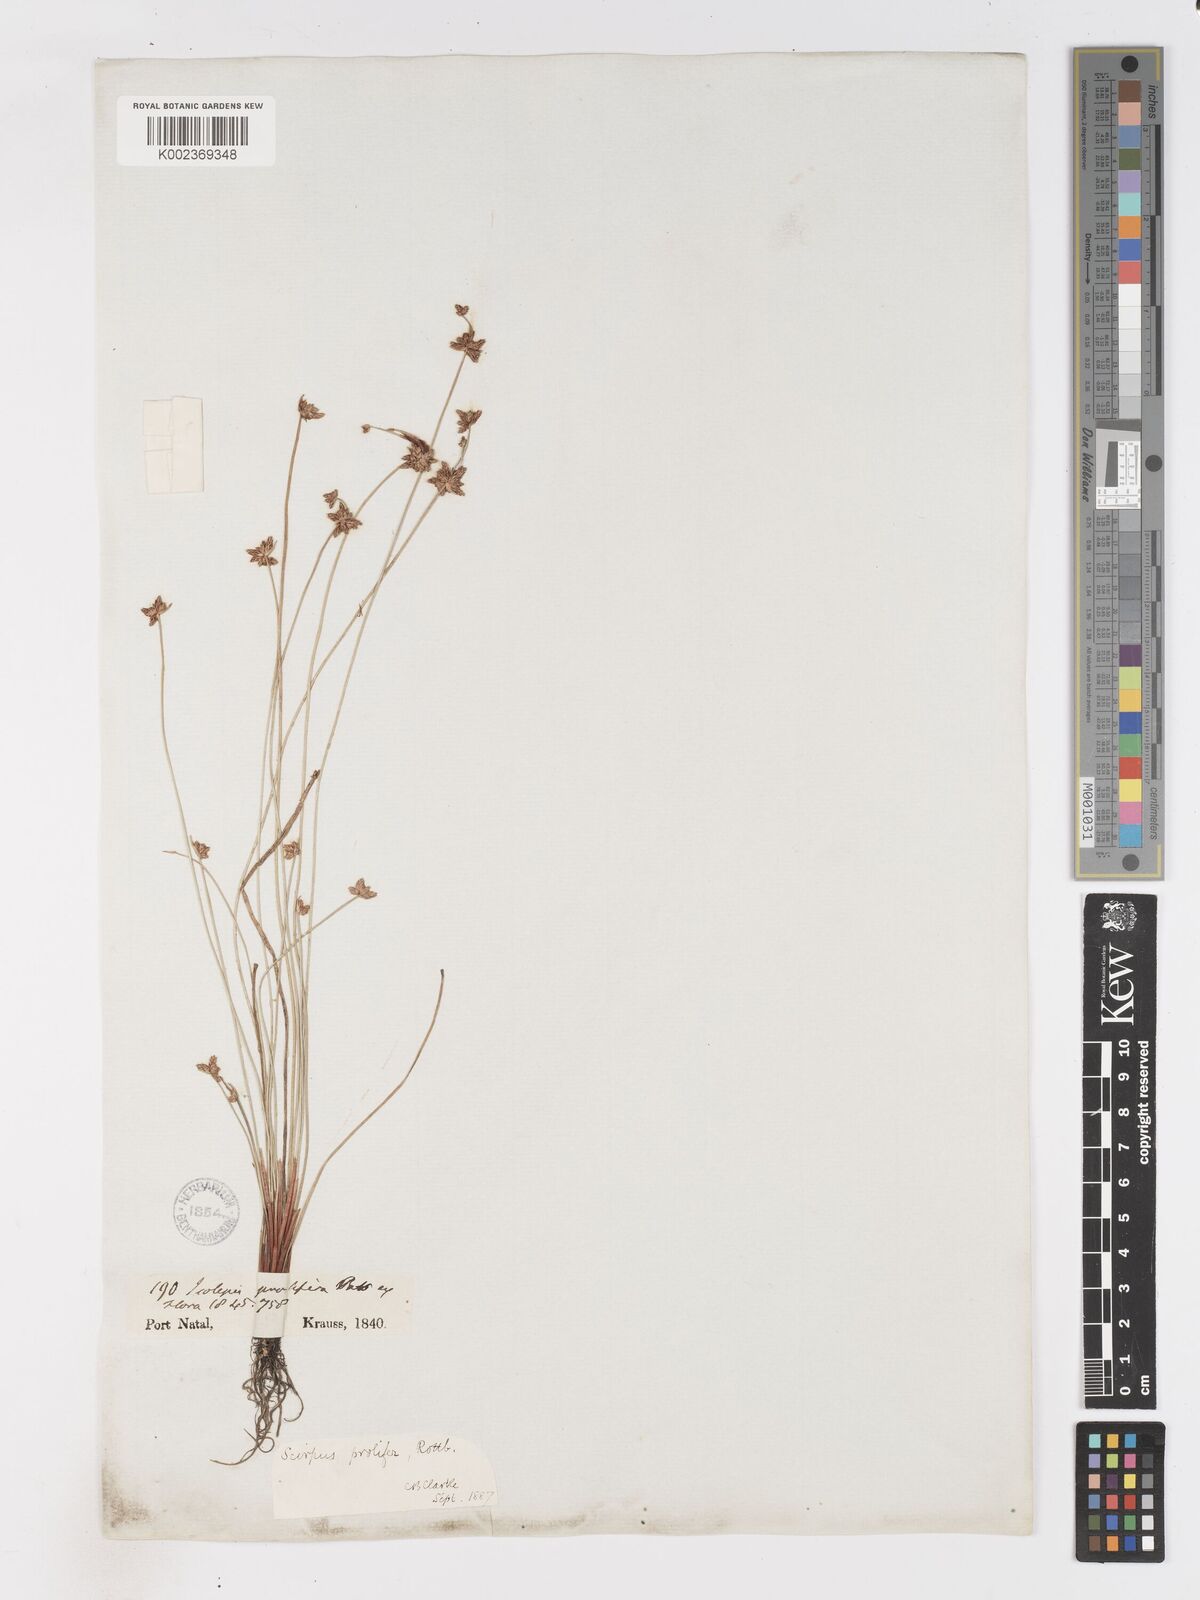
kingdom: Plantae
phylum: Tracheophyta
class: Liliopsida
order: Poales
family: Cyperaceae
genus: Isolepis
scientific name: Isolepis prolifera
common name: Proliferating bulrush
